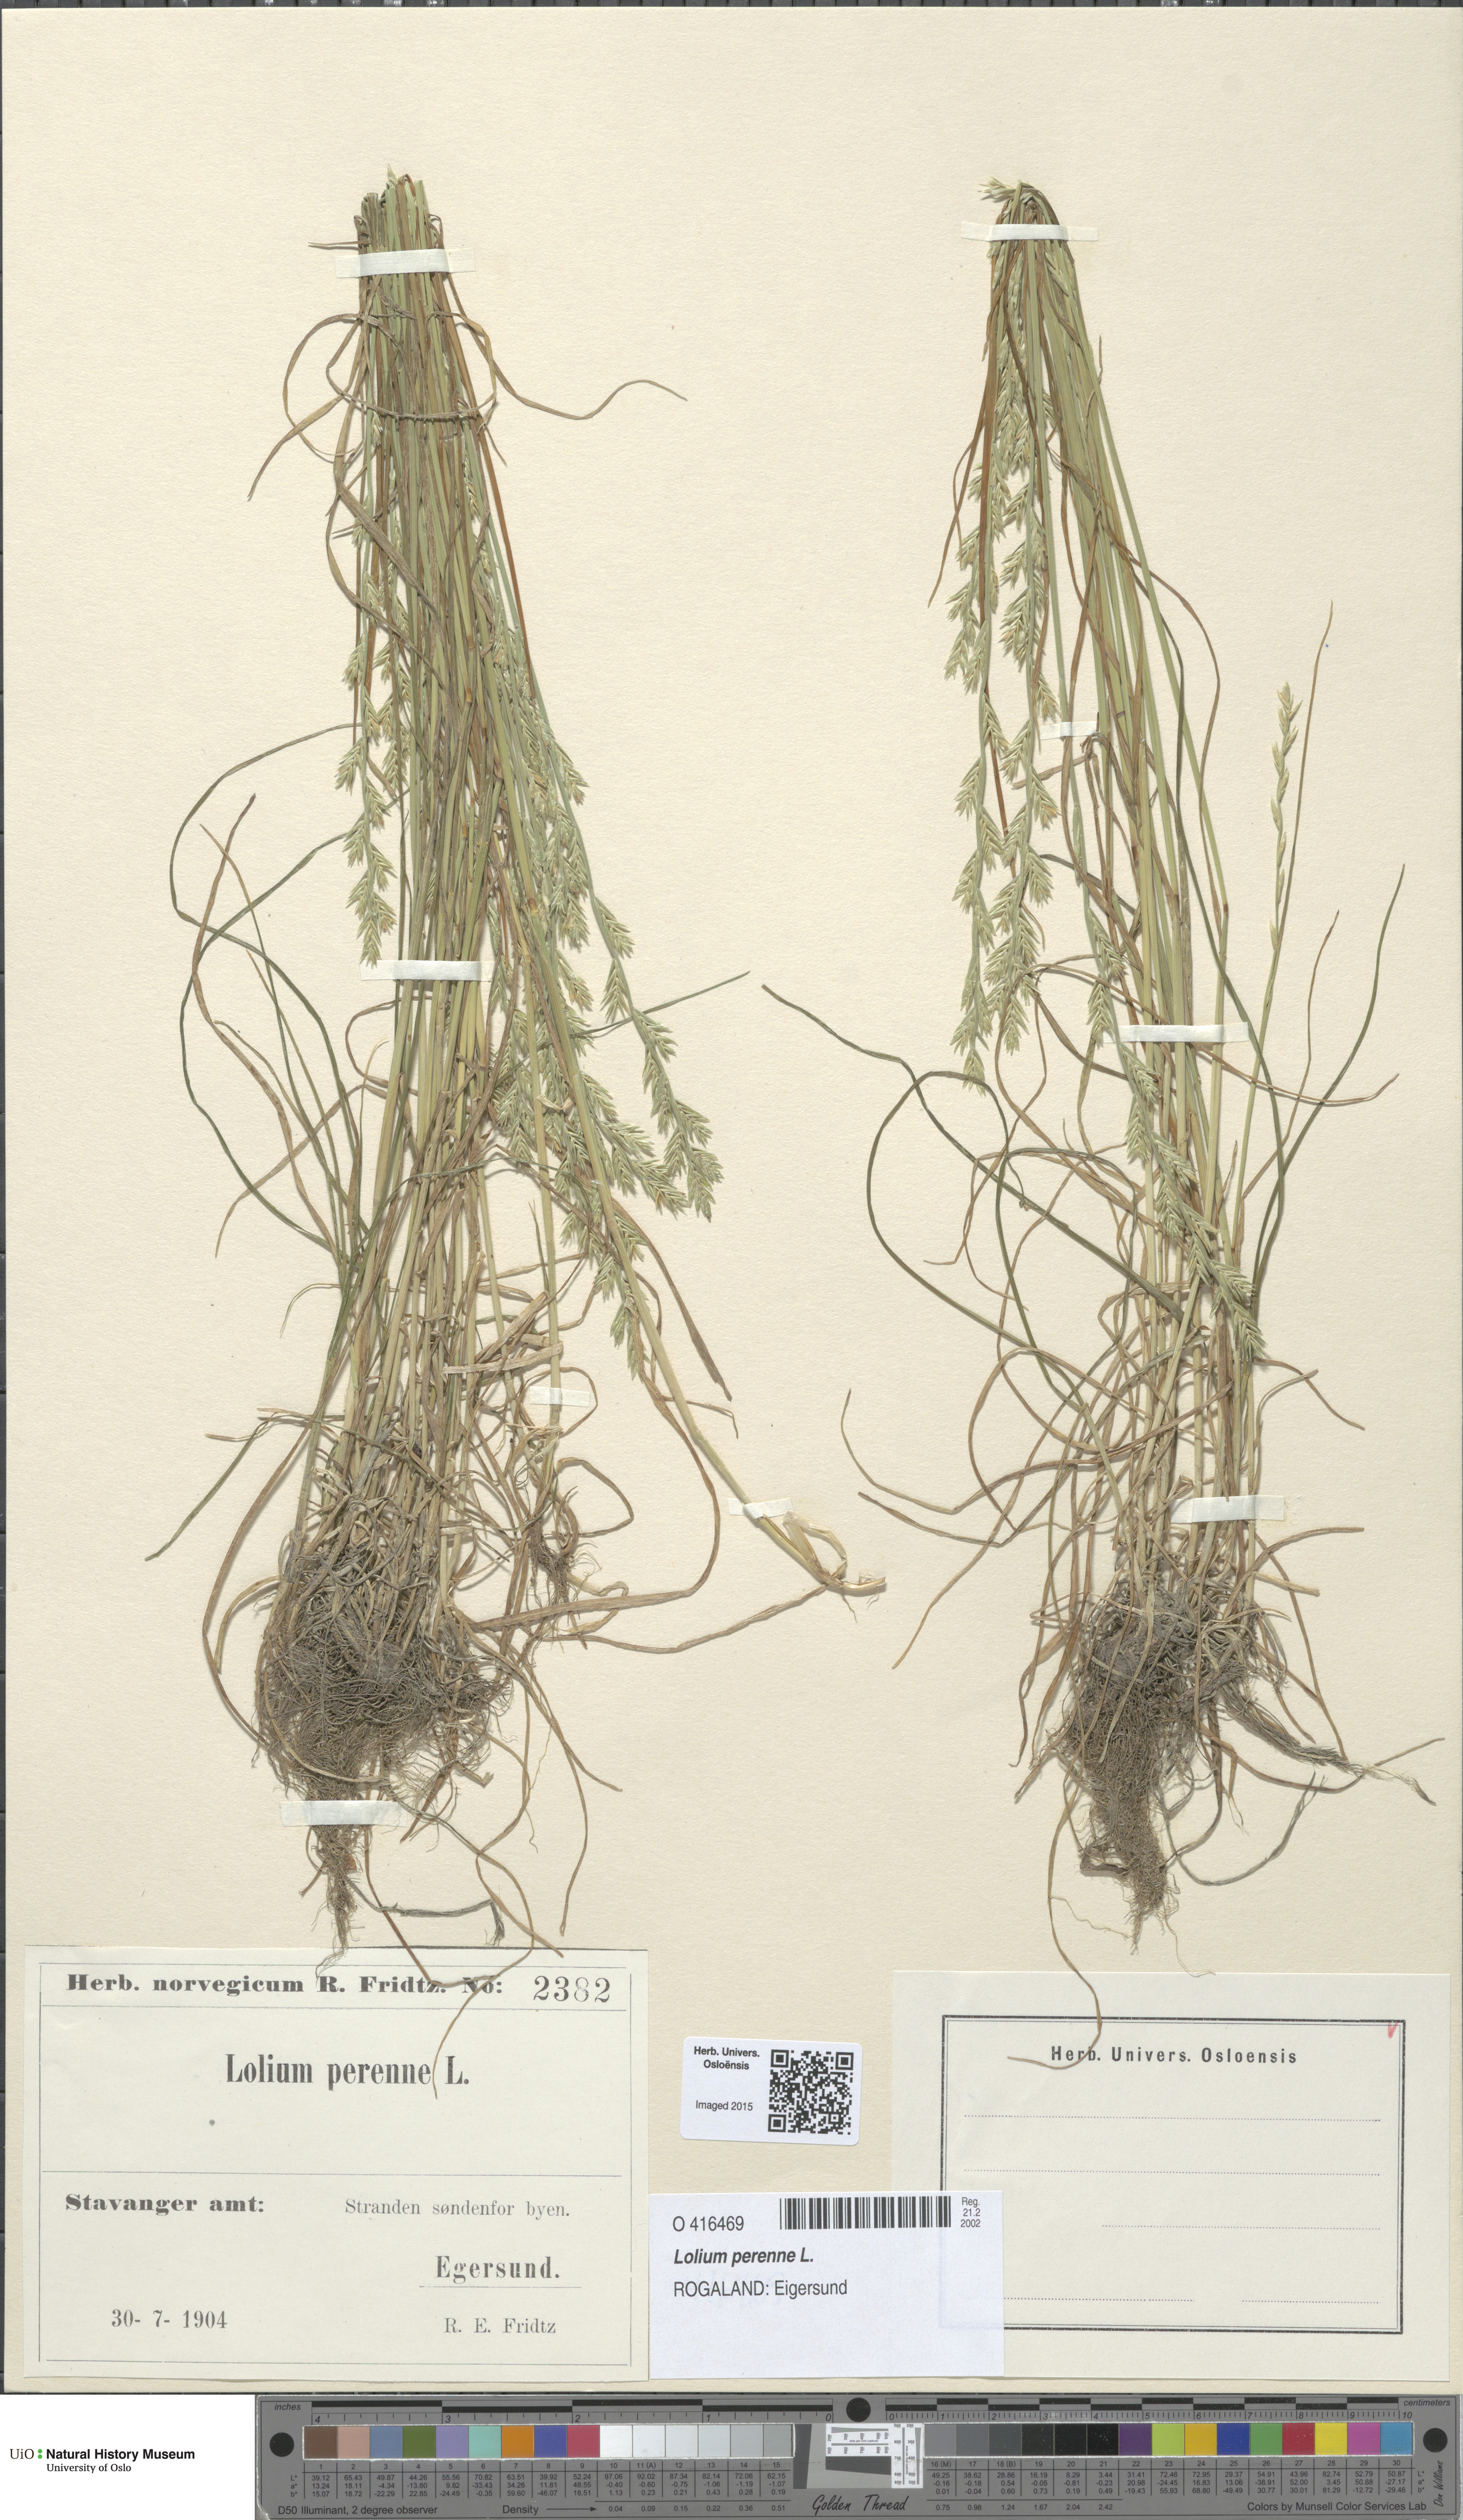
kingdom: Plantae
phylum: Tracheophyta
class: Liliopsida
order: Poales
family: Poaceae
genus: Lolium
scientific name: Lolium perenne
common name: Perennial ryegrass
